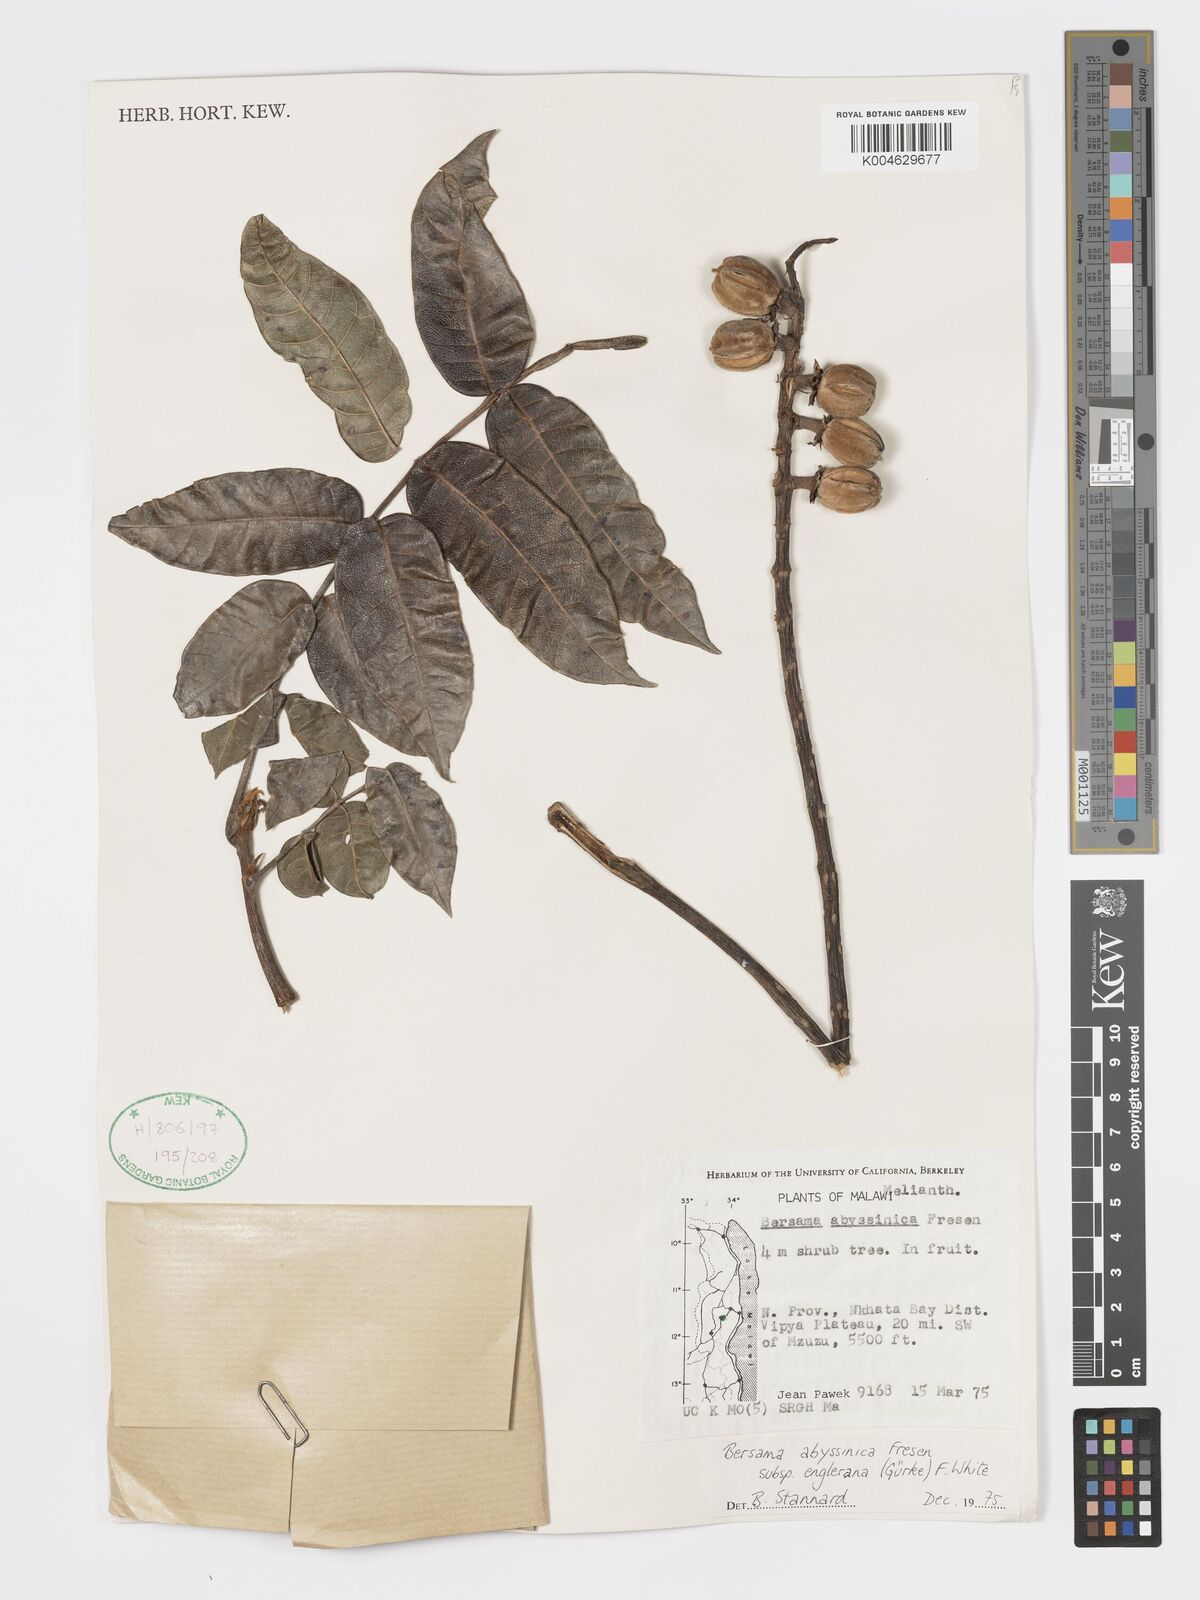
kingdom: Plantae
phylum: Tracheophyta
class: Magnoliopsida
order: Geraniales
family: Melianthaceae
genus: Bersama
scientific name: Bersama abyssinica
